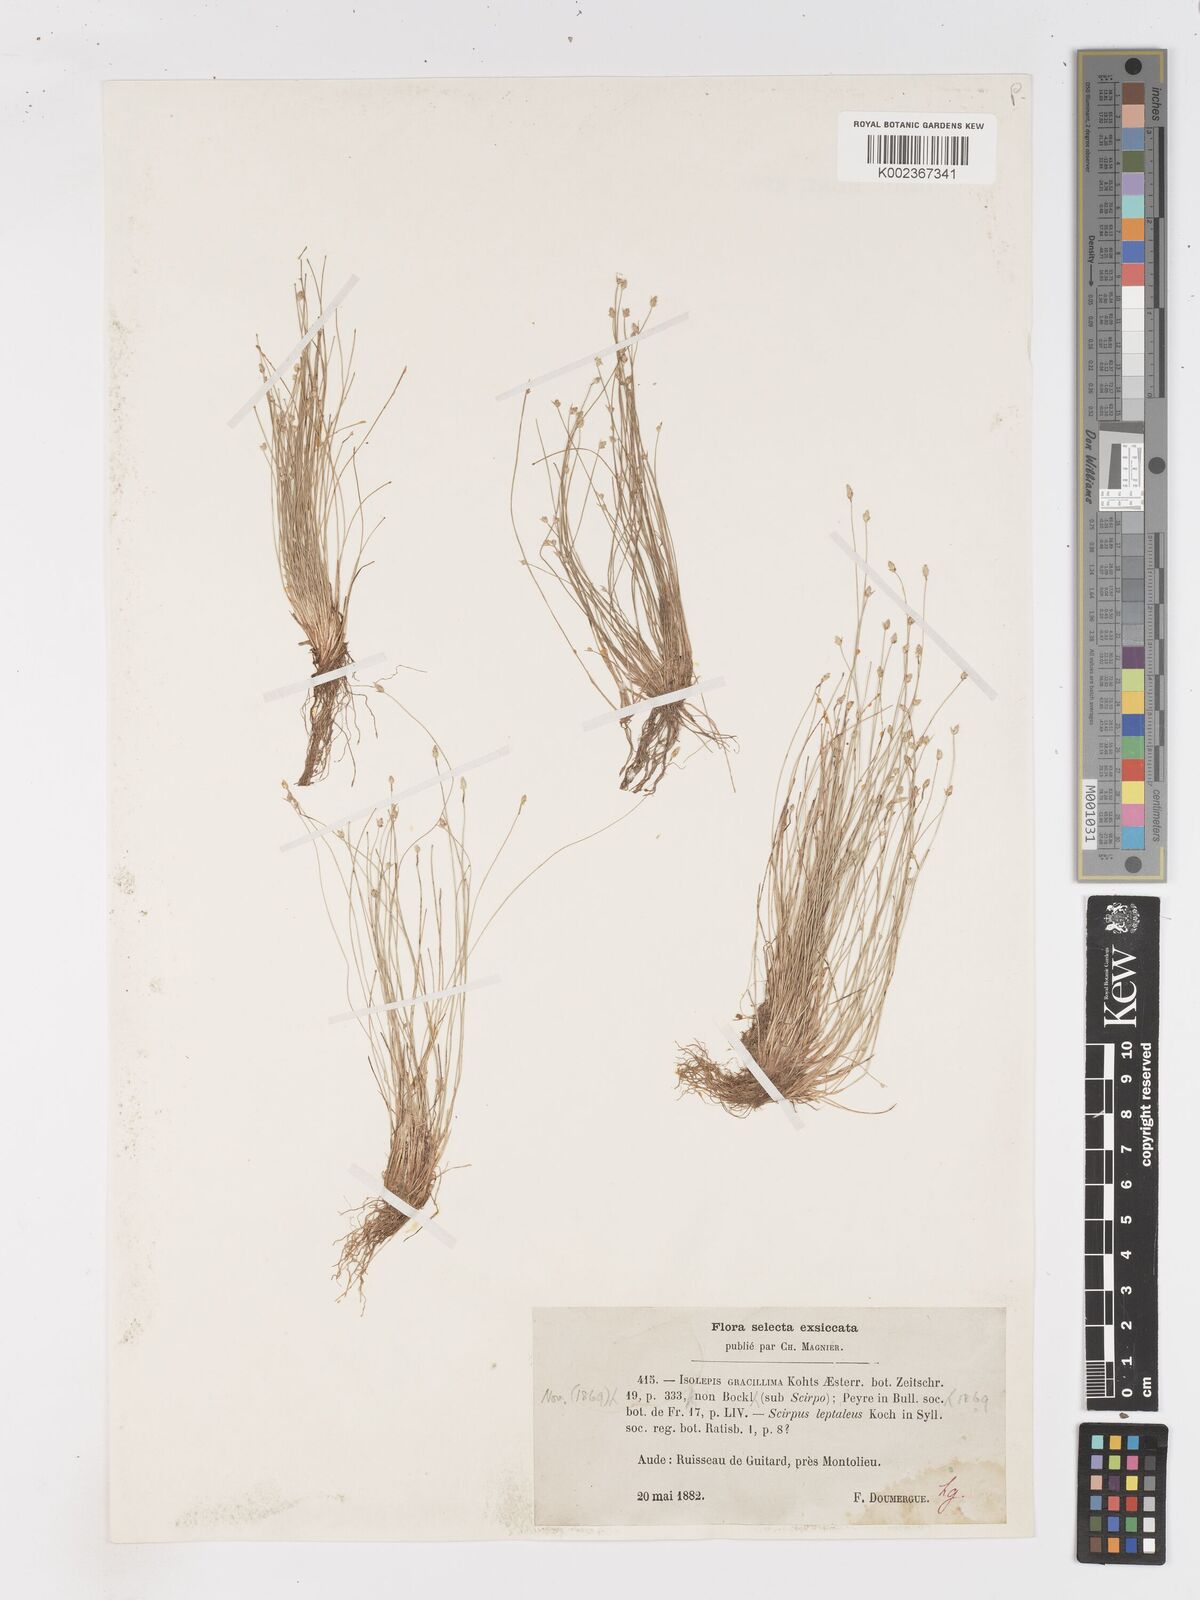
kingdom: Plantae
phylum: Tracheophyta
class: Liliopsida
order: Poales
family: Cyperaceae
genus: Isolepis
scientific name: Isolepis cernua
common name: Slender club-rush
